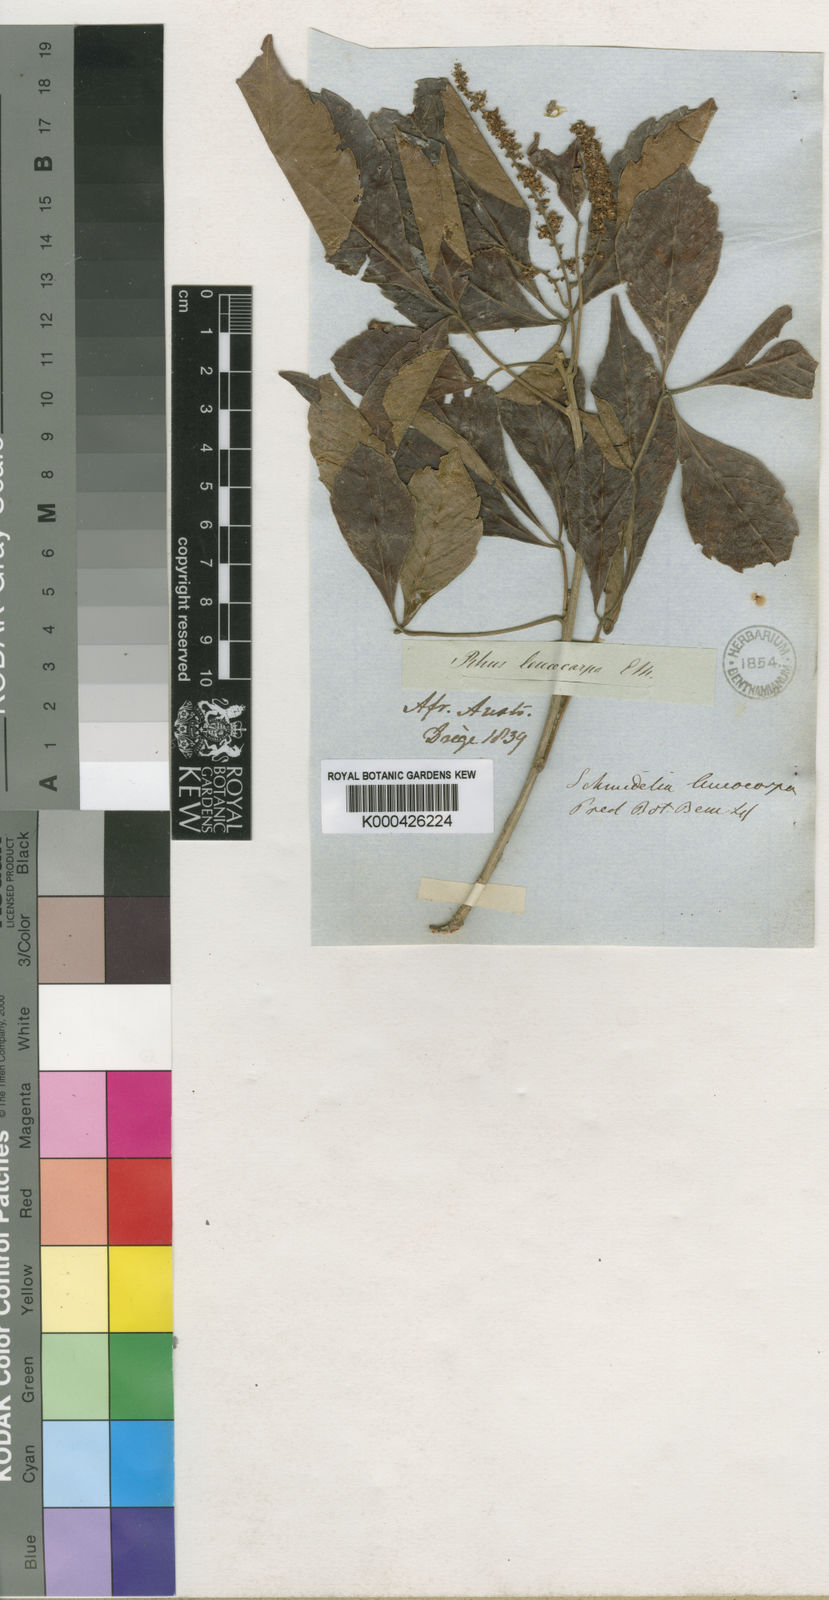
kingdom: Plantae
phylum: Tracheophyta
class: Magnoliopsida
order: Sapindales
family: Sapindaceae
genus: Allophylus
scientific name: Allophylus africanus
